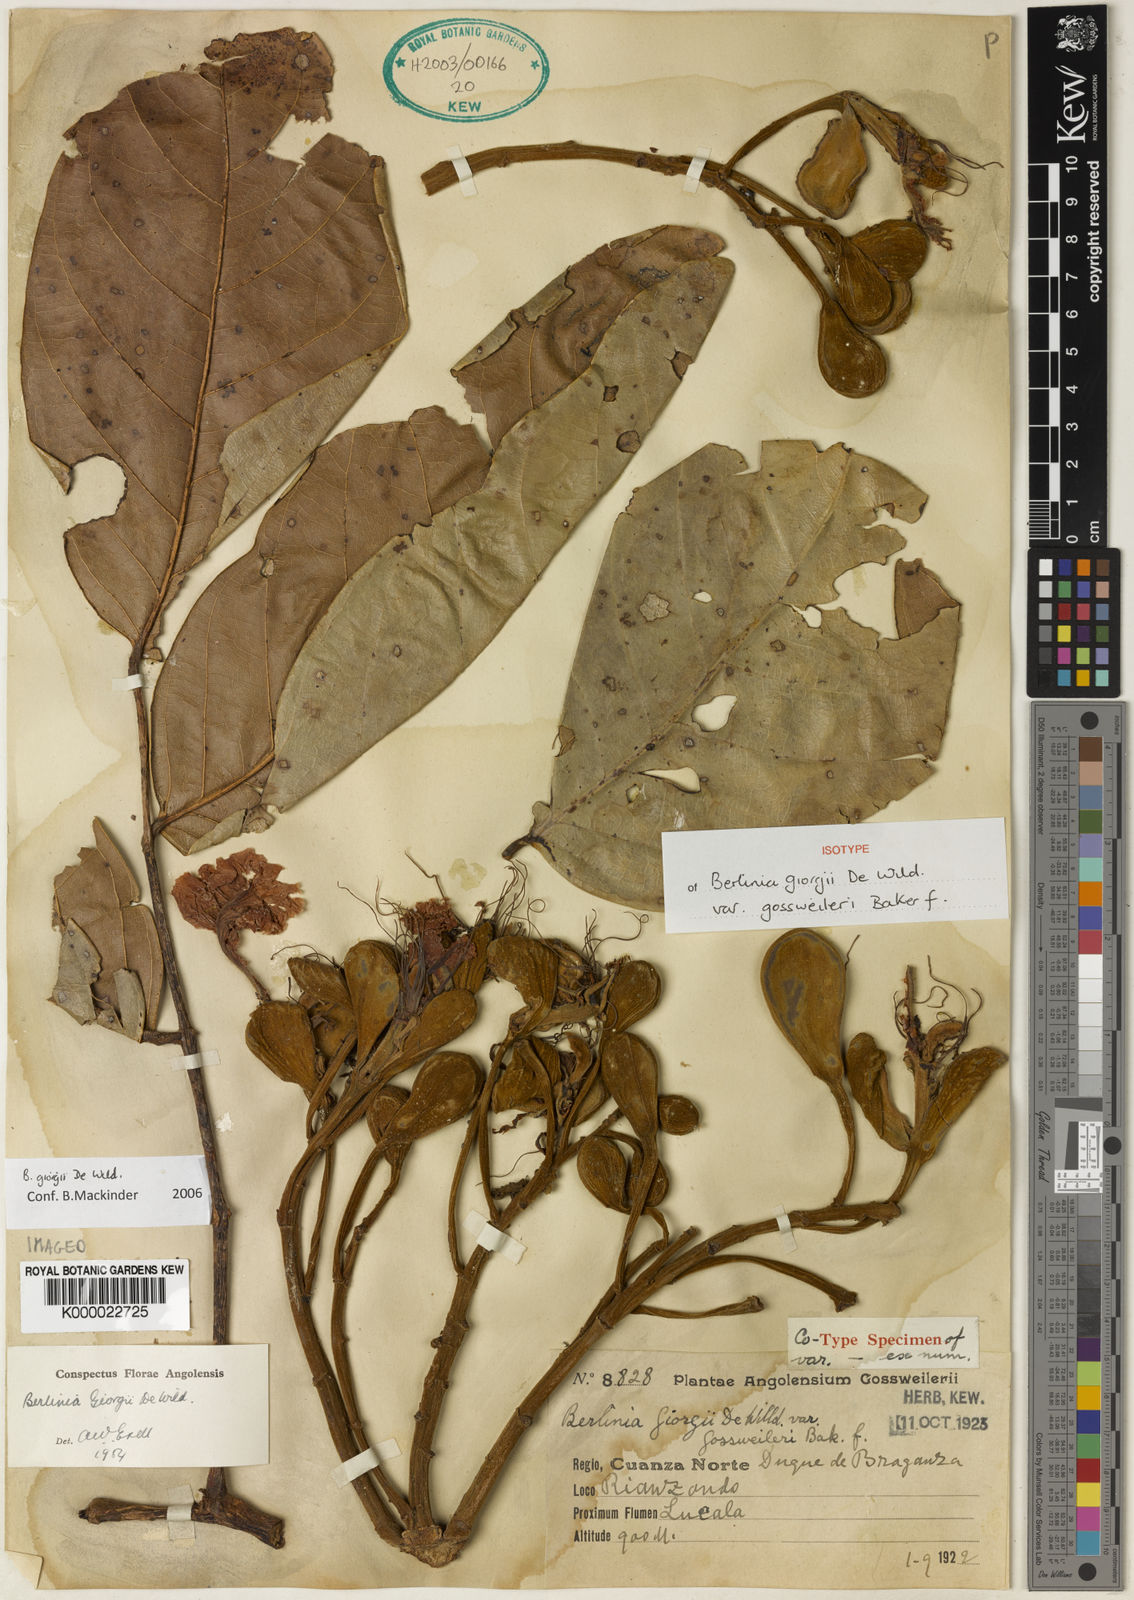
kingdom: Plantae
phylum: Tracheophyta
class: Magnoliopsida
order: Fabales
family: Fabaceae
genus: Berlinia
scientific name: Berlinia giorgii
